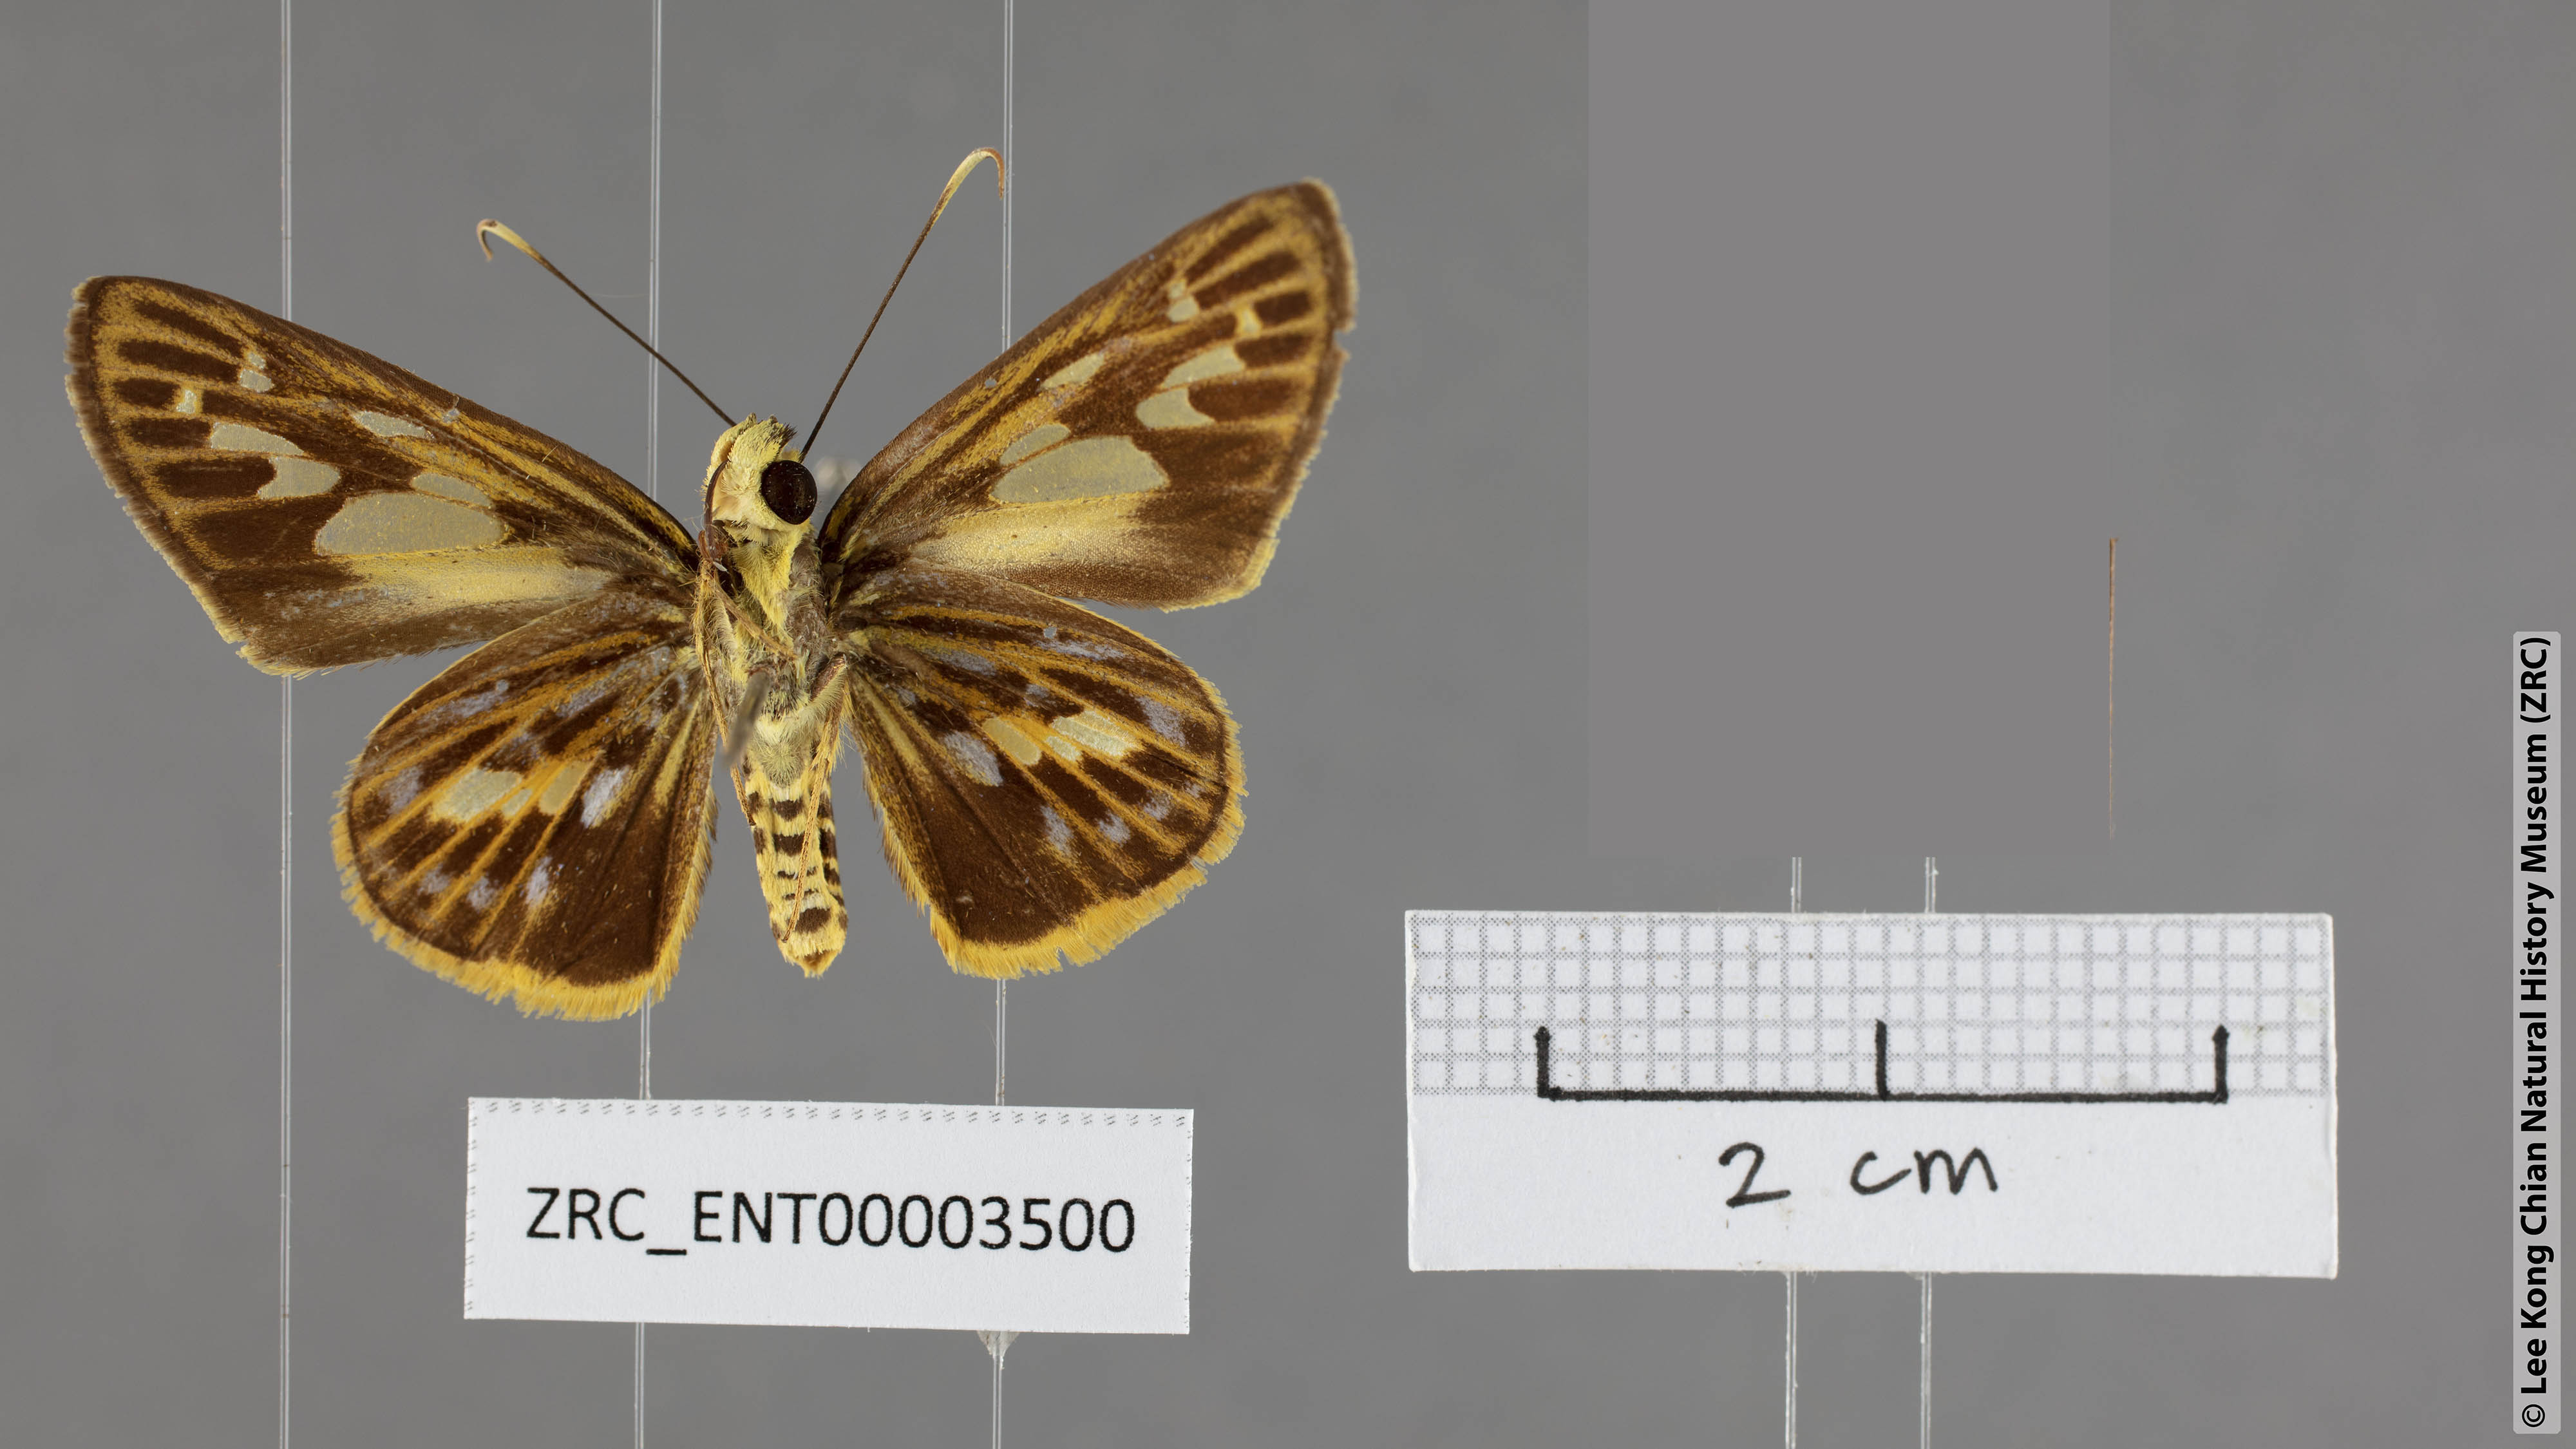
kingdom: Animalia
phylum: Arthropoda
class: Insecta
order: Lepidoptera
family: Hesperiidae
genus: Pyroneura
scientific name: Pyroneura derna
